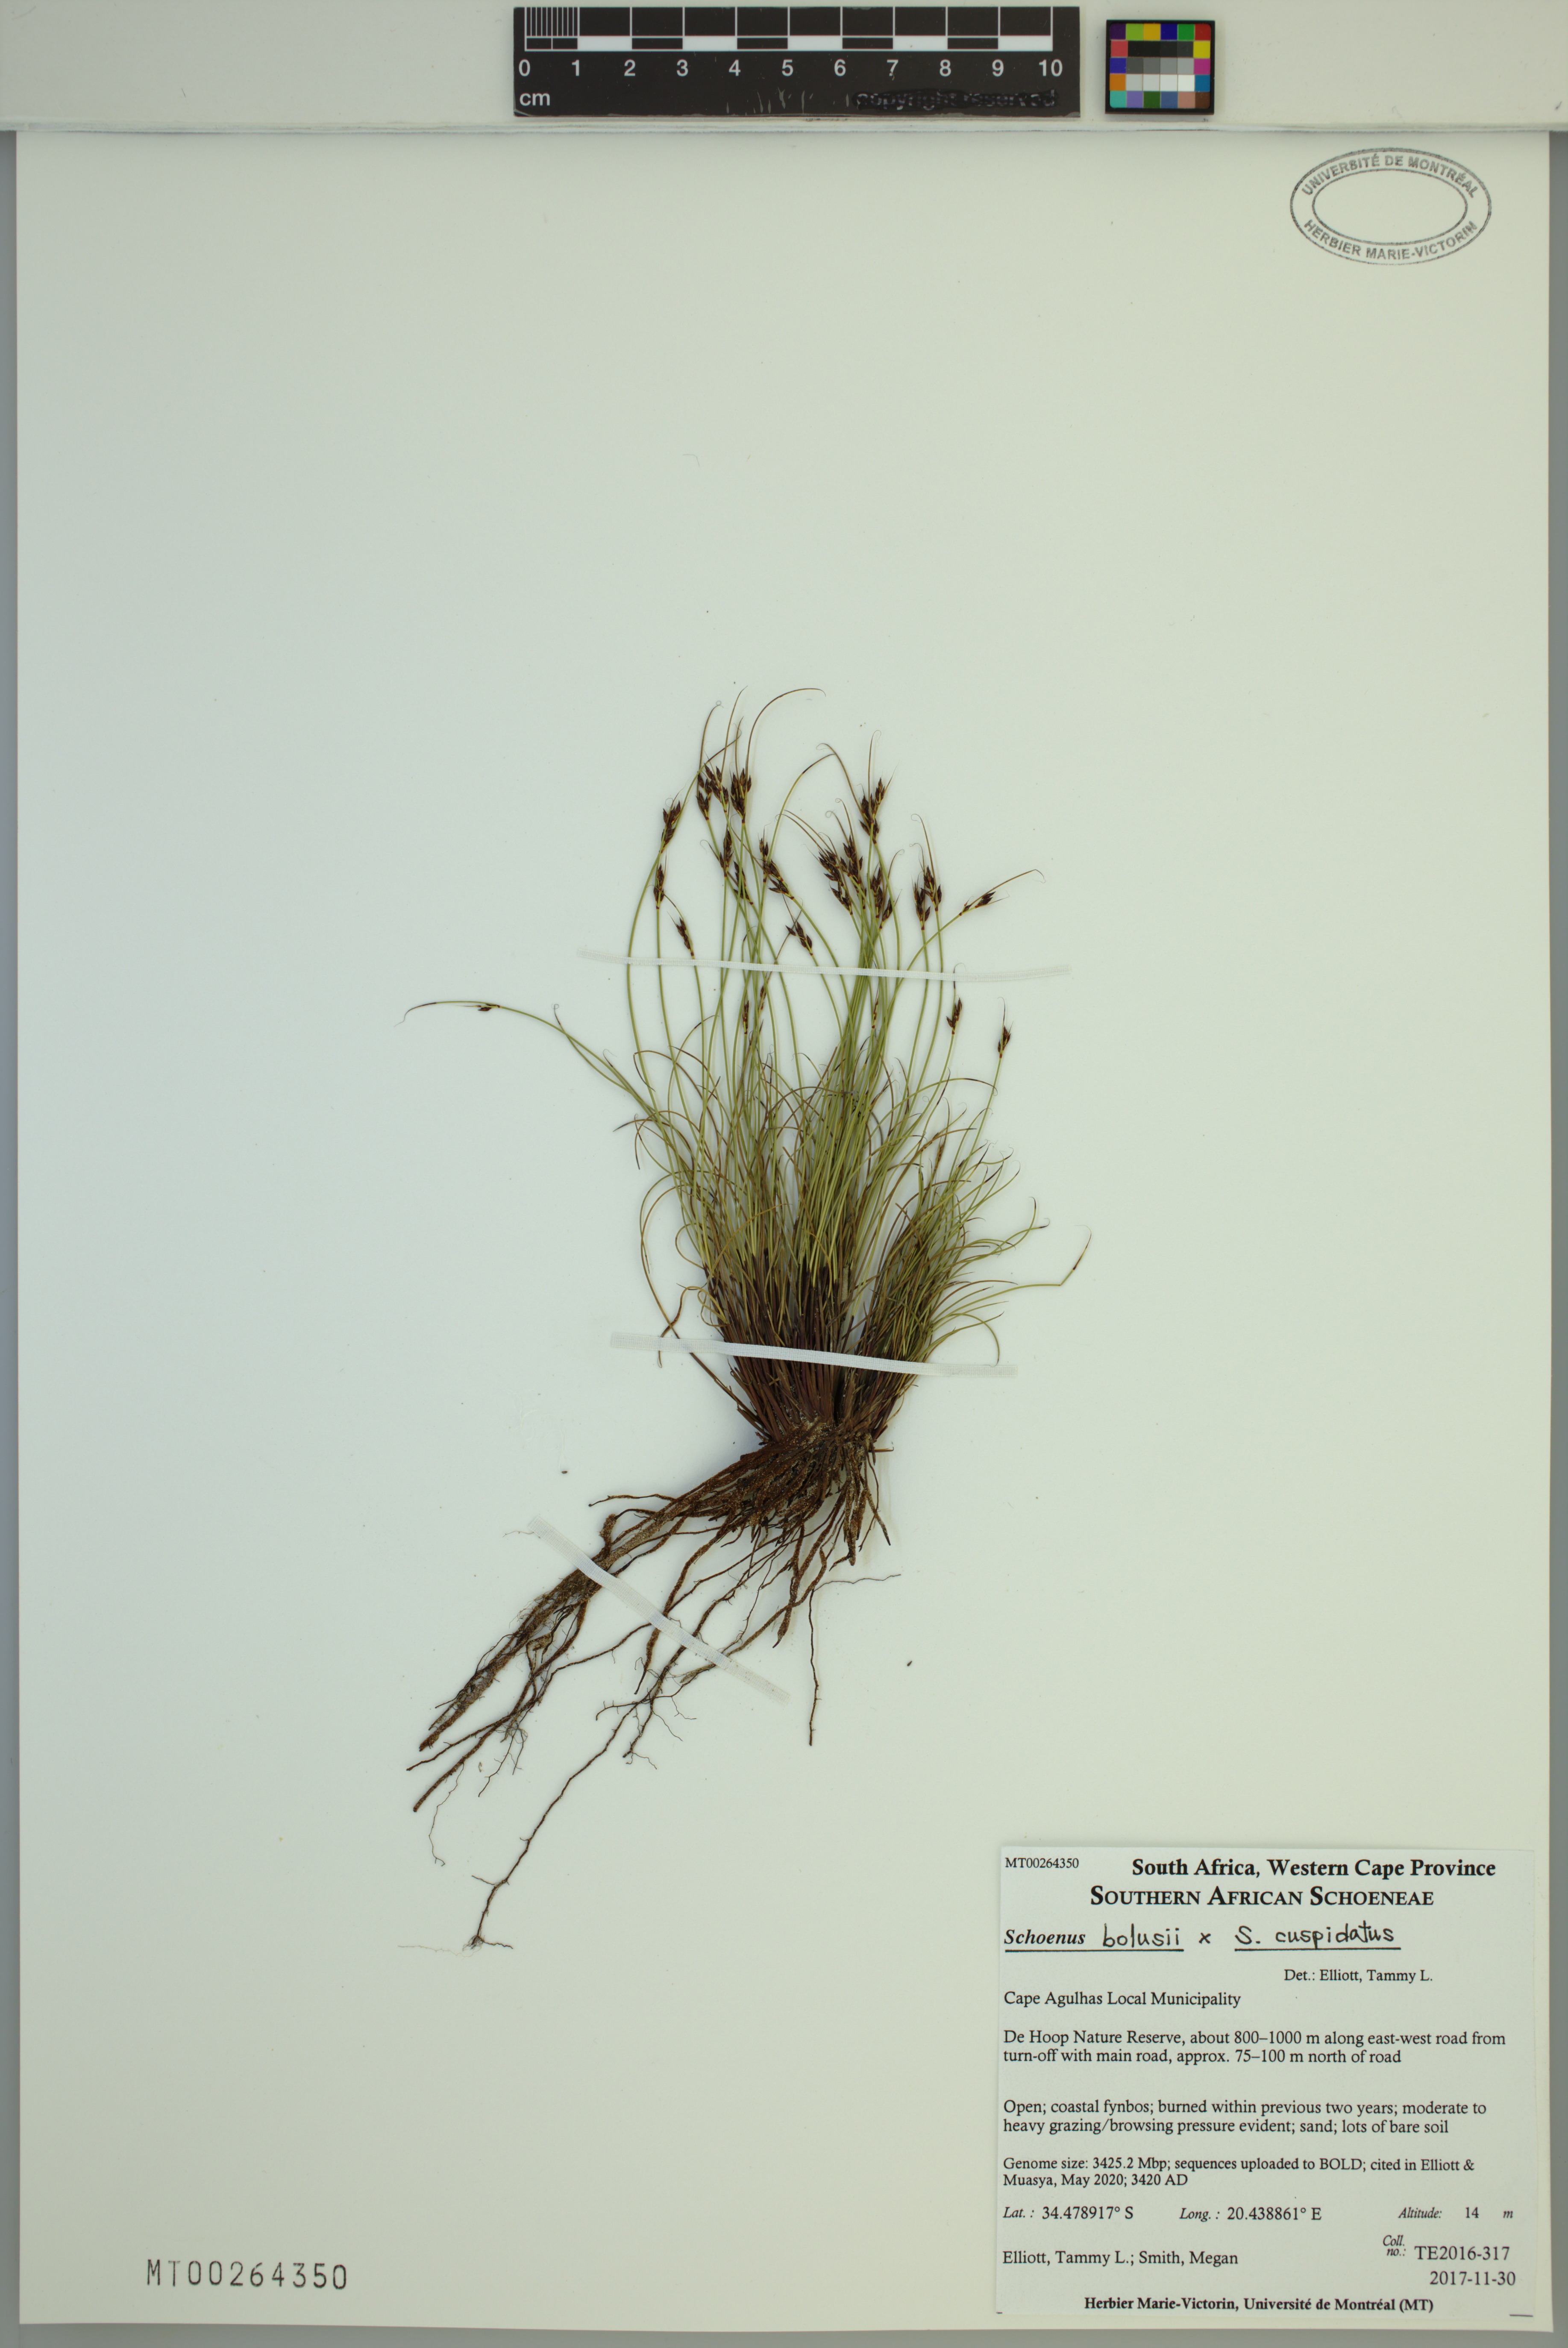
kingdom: Plantae
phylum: Tracheophyta
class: Liliopsida
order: Poales
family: Cyperaceae
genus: Schoenus
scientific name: Schoenus bolusii
